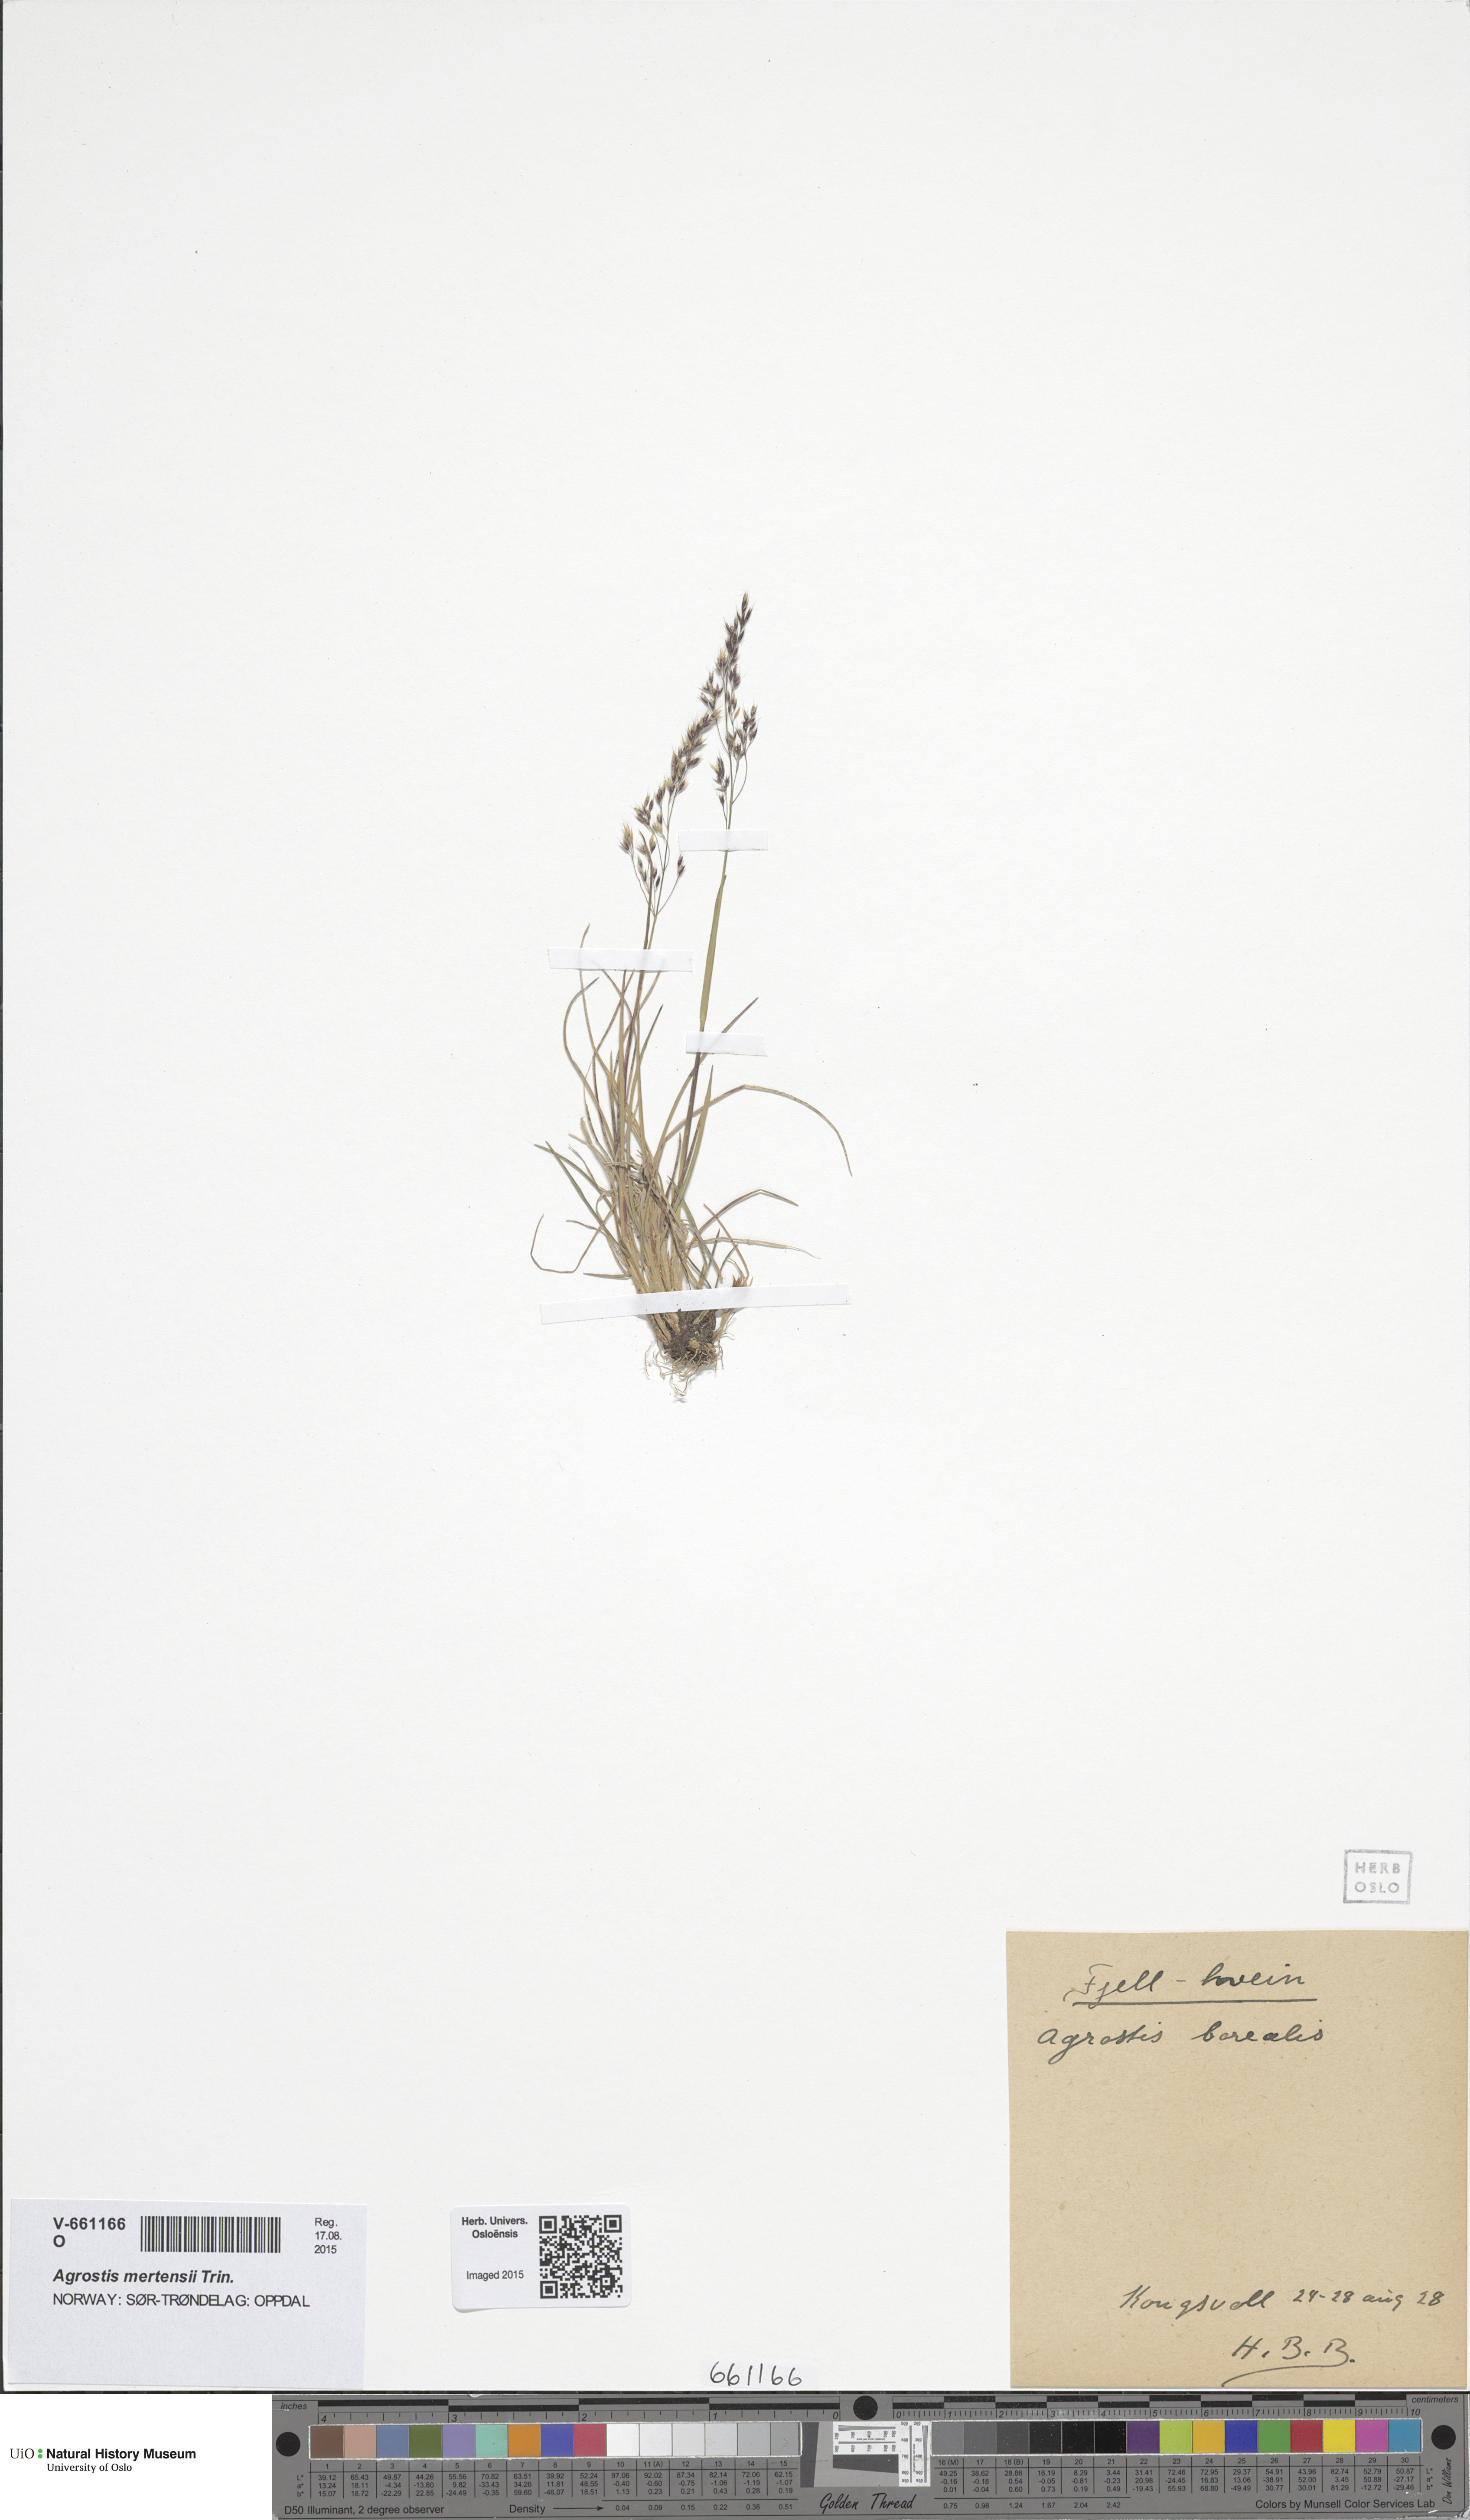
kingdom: Plantae
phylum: Tracheophyta
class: Liliopsida
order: Poales
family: Poaceae
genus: Agrostis
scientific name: Agrostis mertensii
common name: Northern bent
